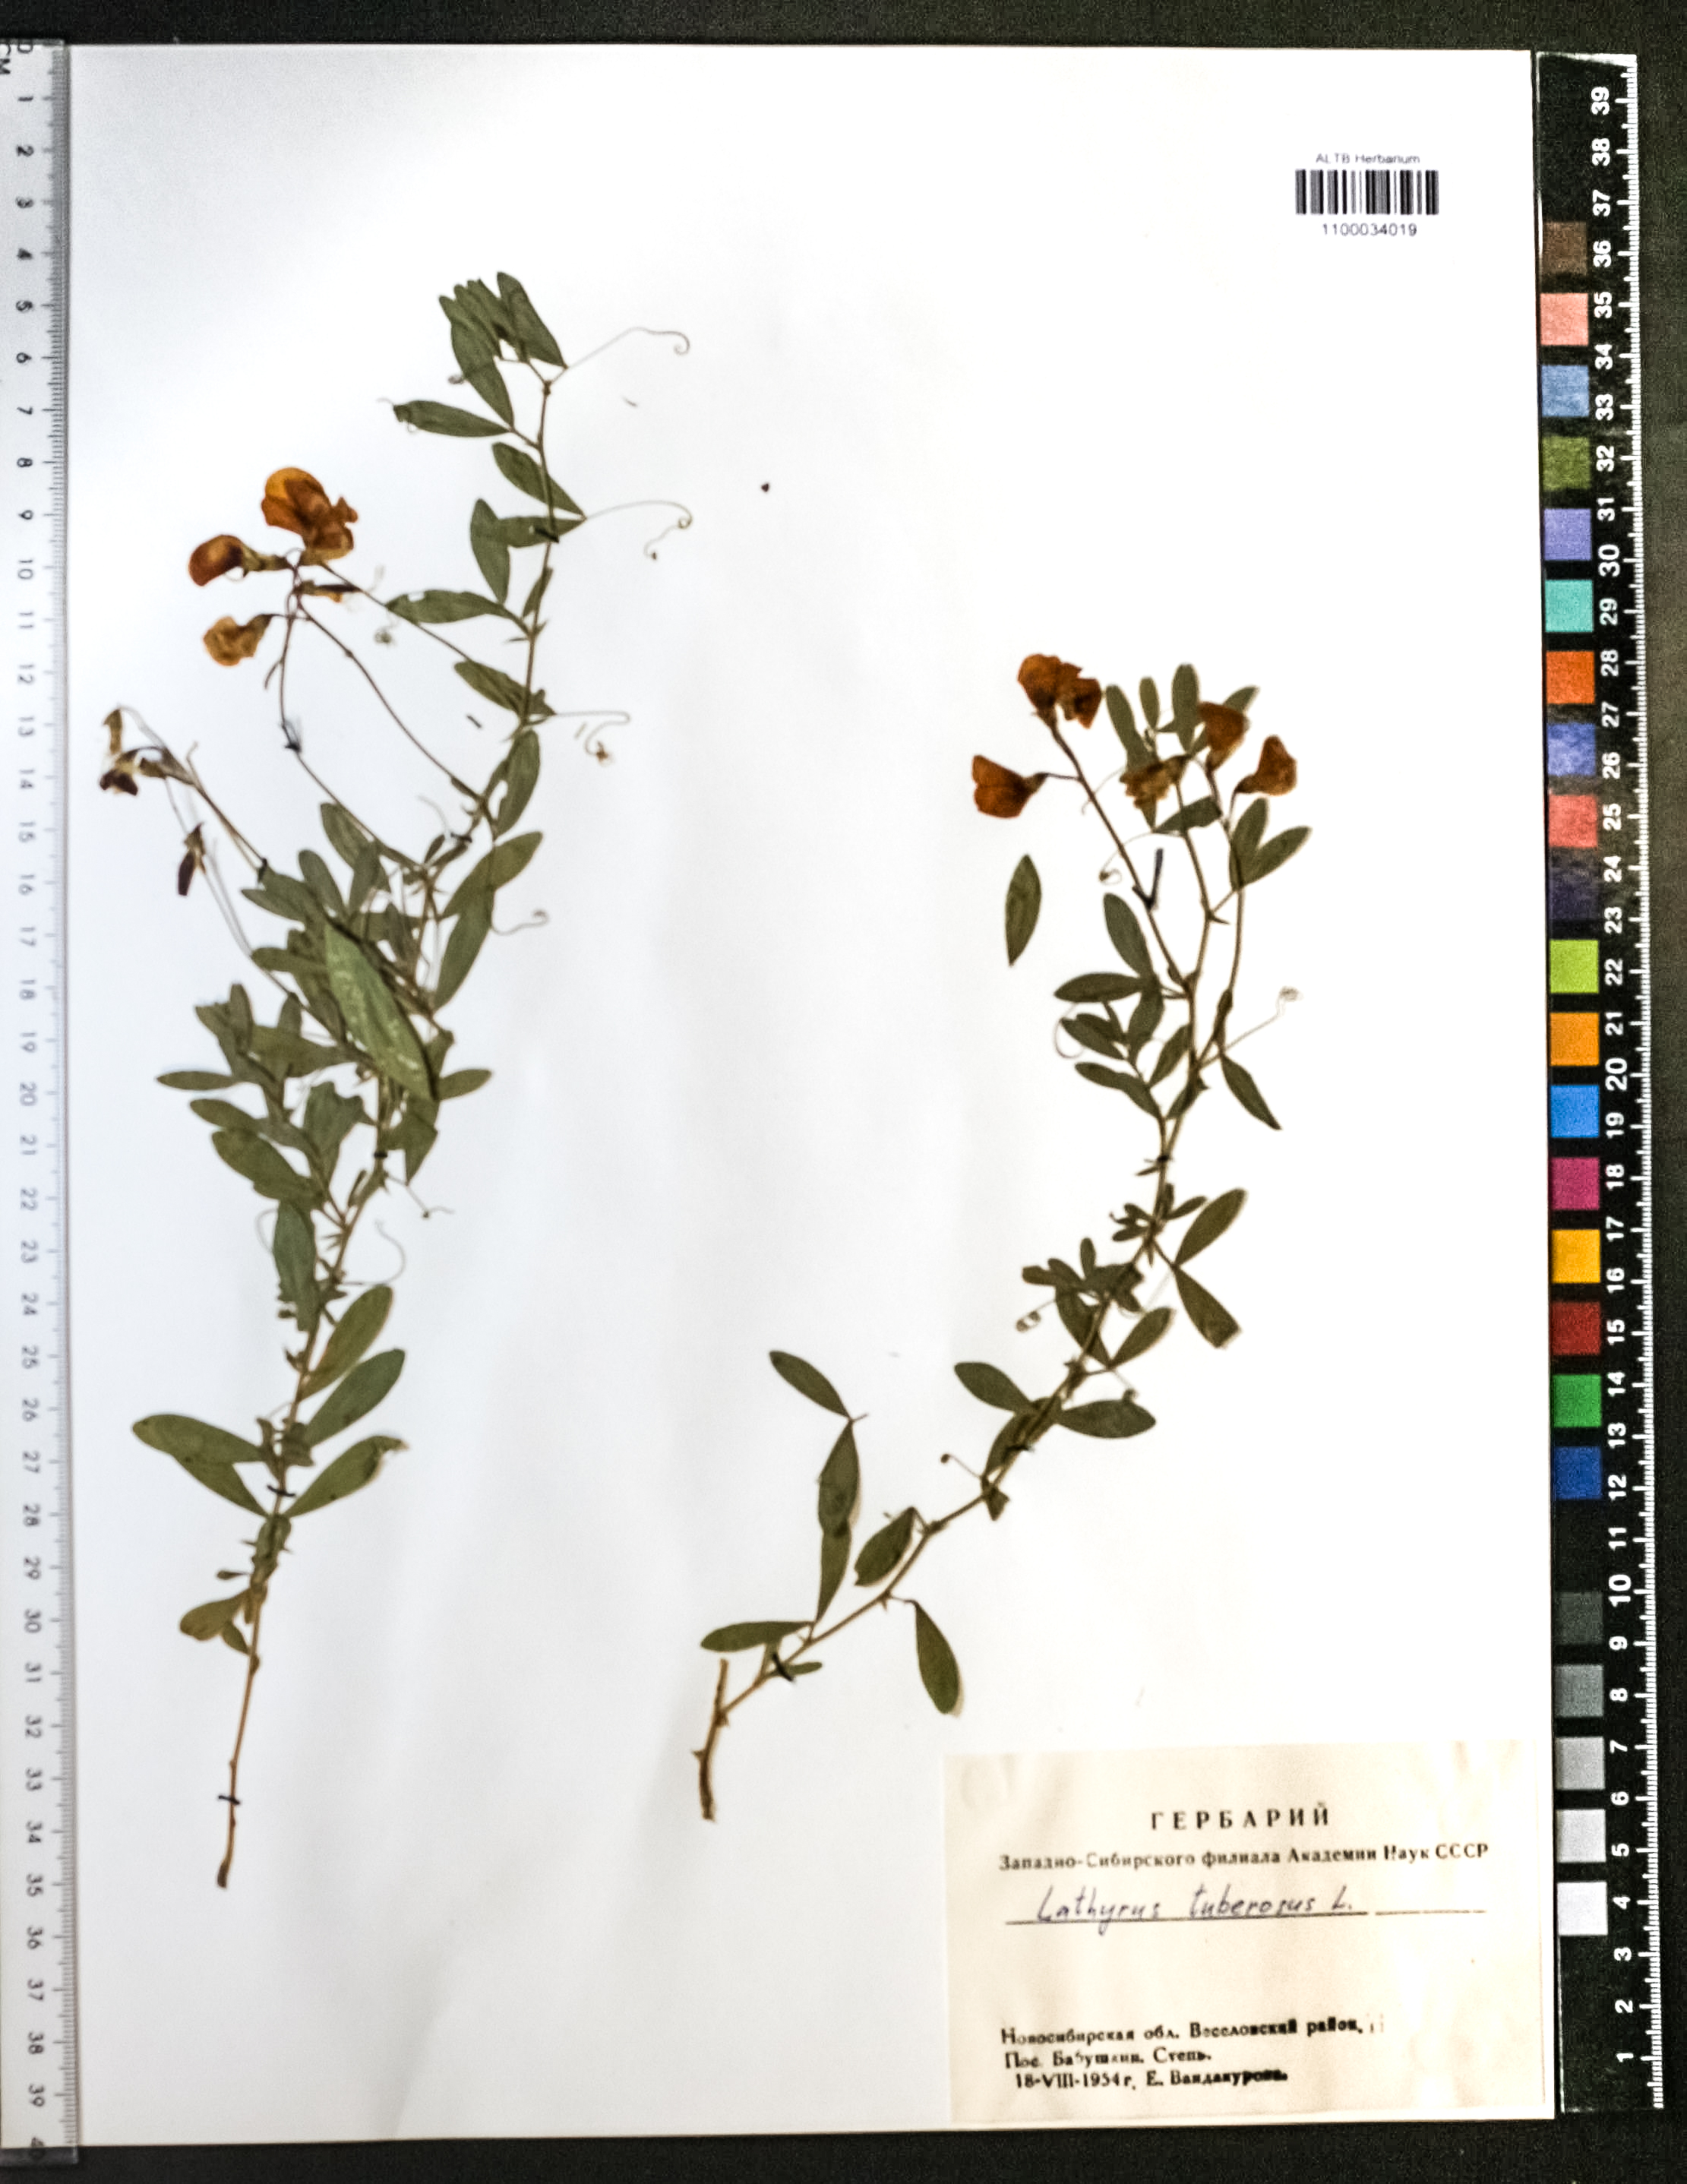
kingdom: Plantae
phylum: Tracheophyta
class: Magnoliopsida
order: Fabales
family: Fabaceae
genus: Lathyrus
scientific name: Lathyrus tuberosus
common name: Tuberous pea
